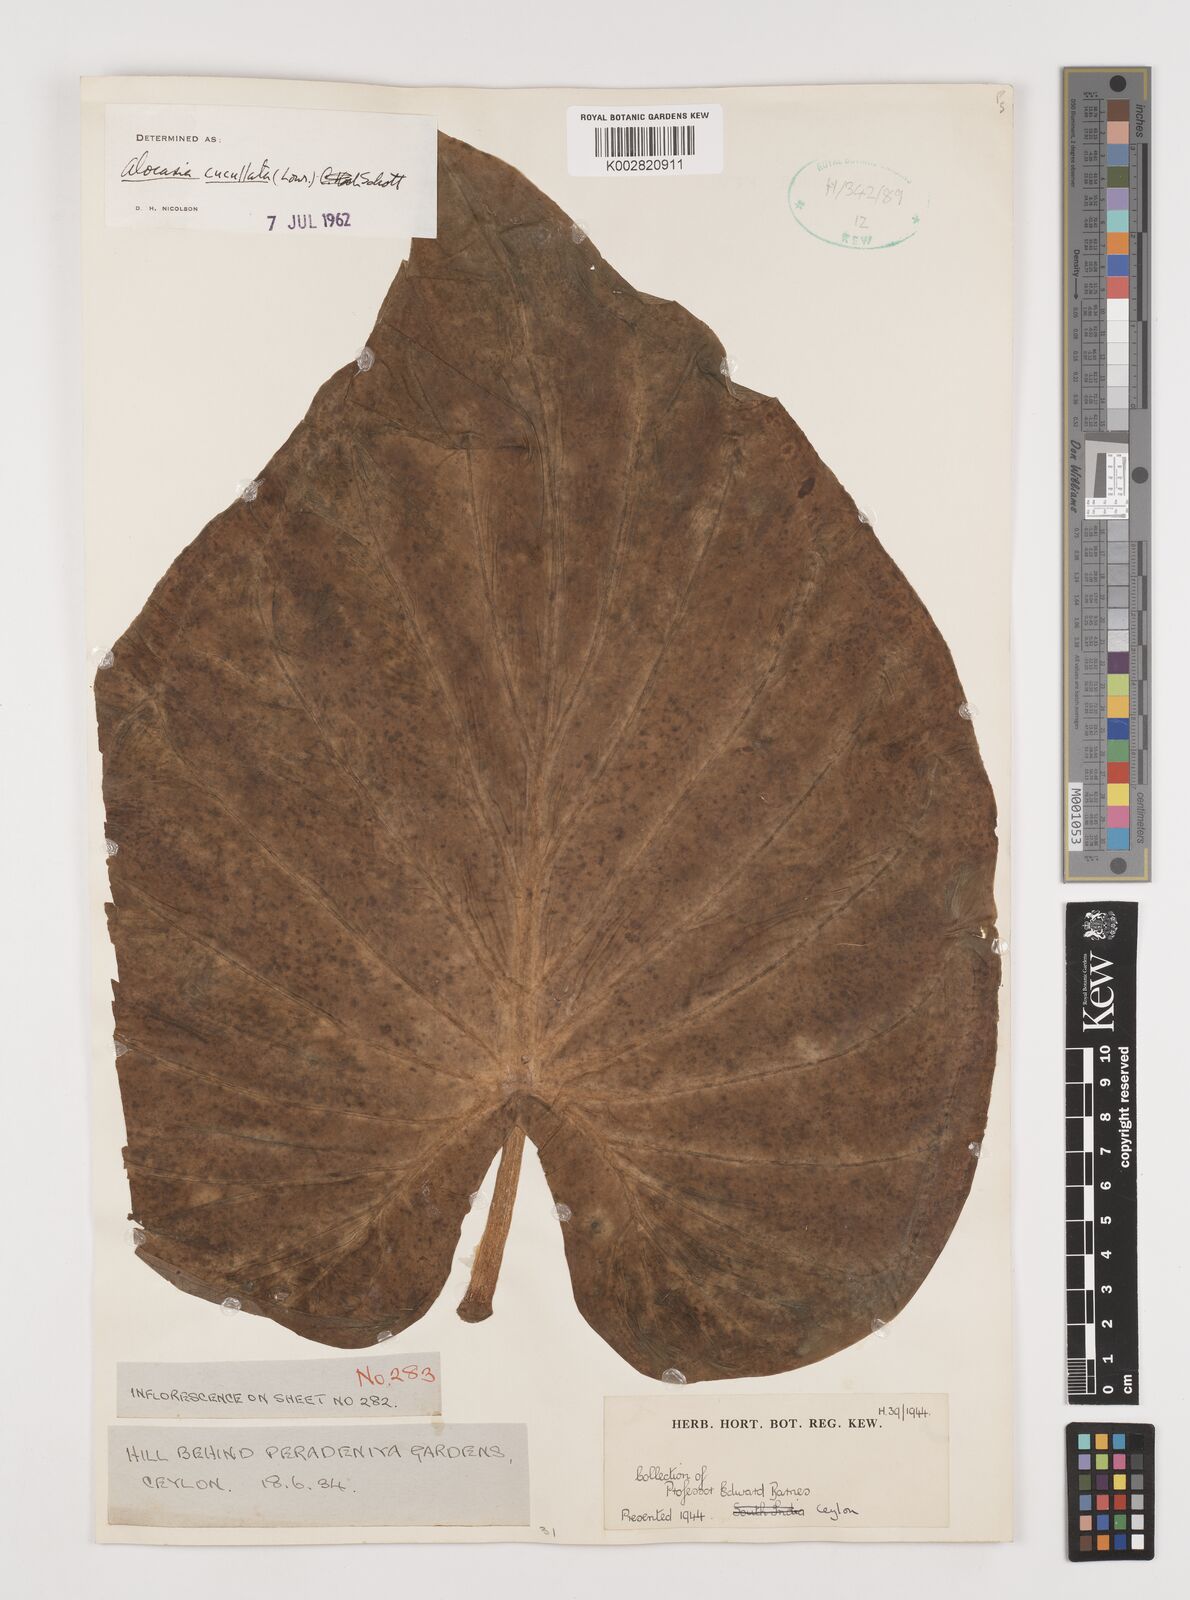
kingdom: Plantae
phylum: Tracheophyta
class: Liliopsida
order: Alismatales
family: Araceae
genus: Alocasia
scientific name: Alocasia cucullata
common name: Buddha's hand
